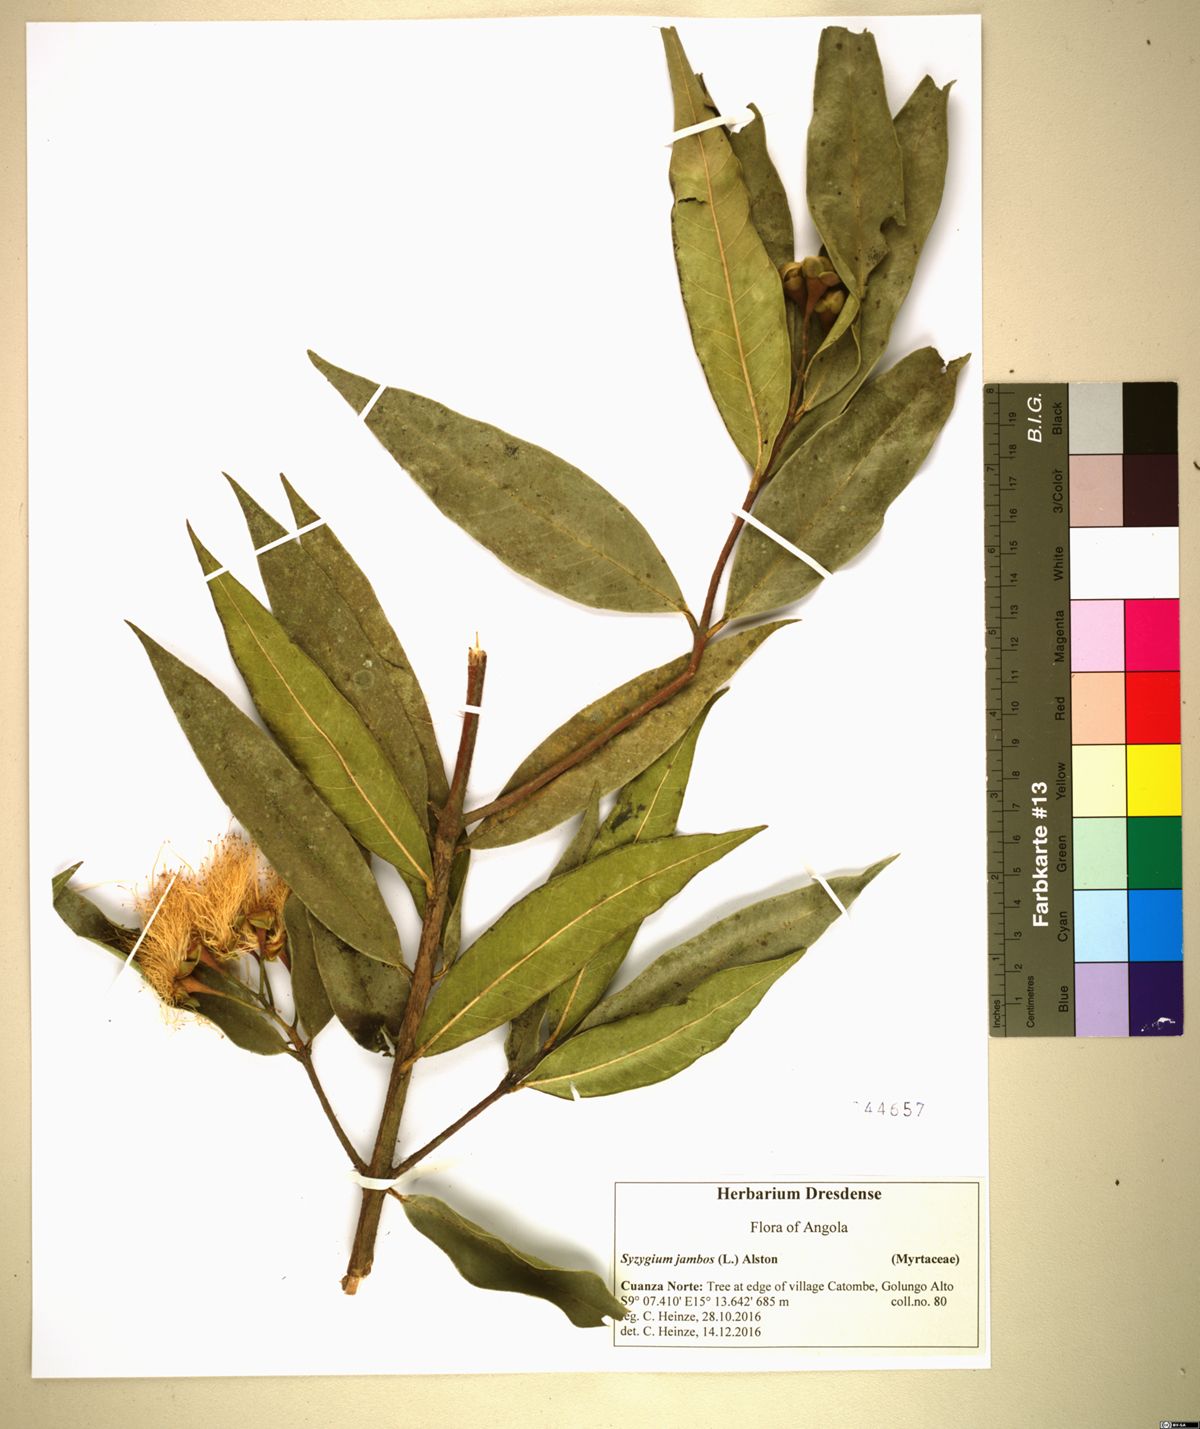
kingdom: Plantae
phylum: Tracheophyta
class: Magnoliopsida
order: Myrtales
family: Myrtaceae
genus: Syzygium
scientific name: Syzygium jambos
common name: Malabar plum
